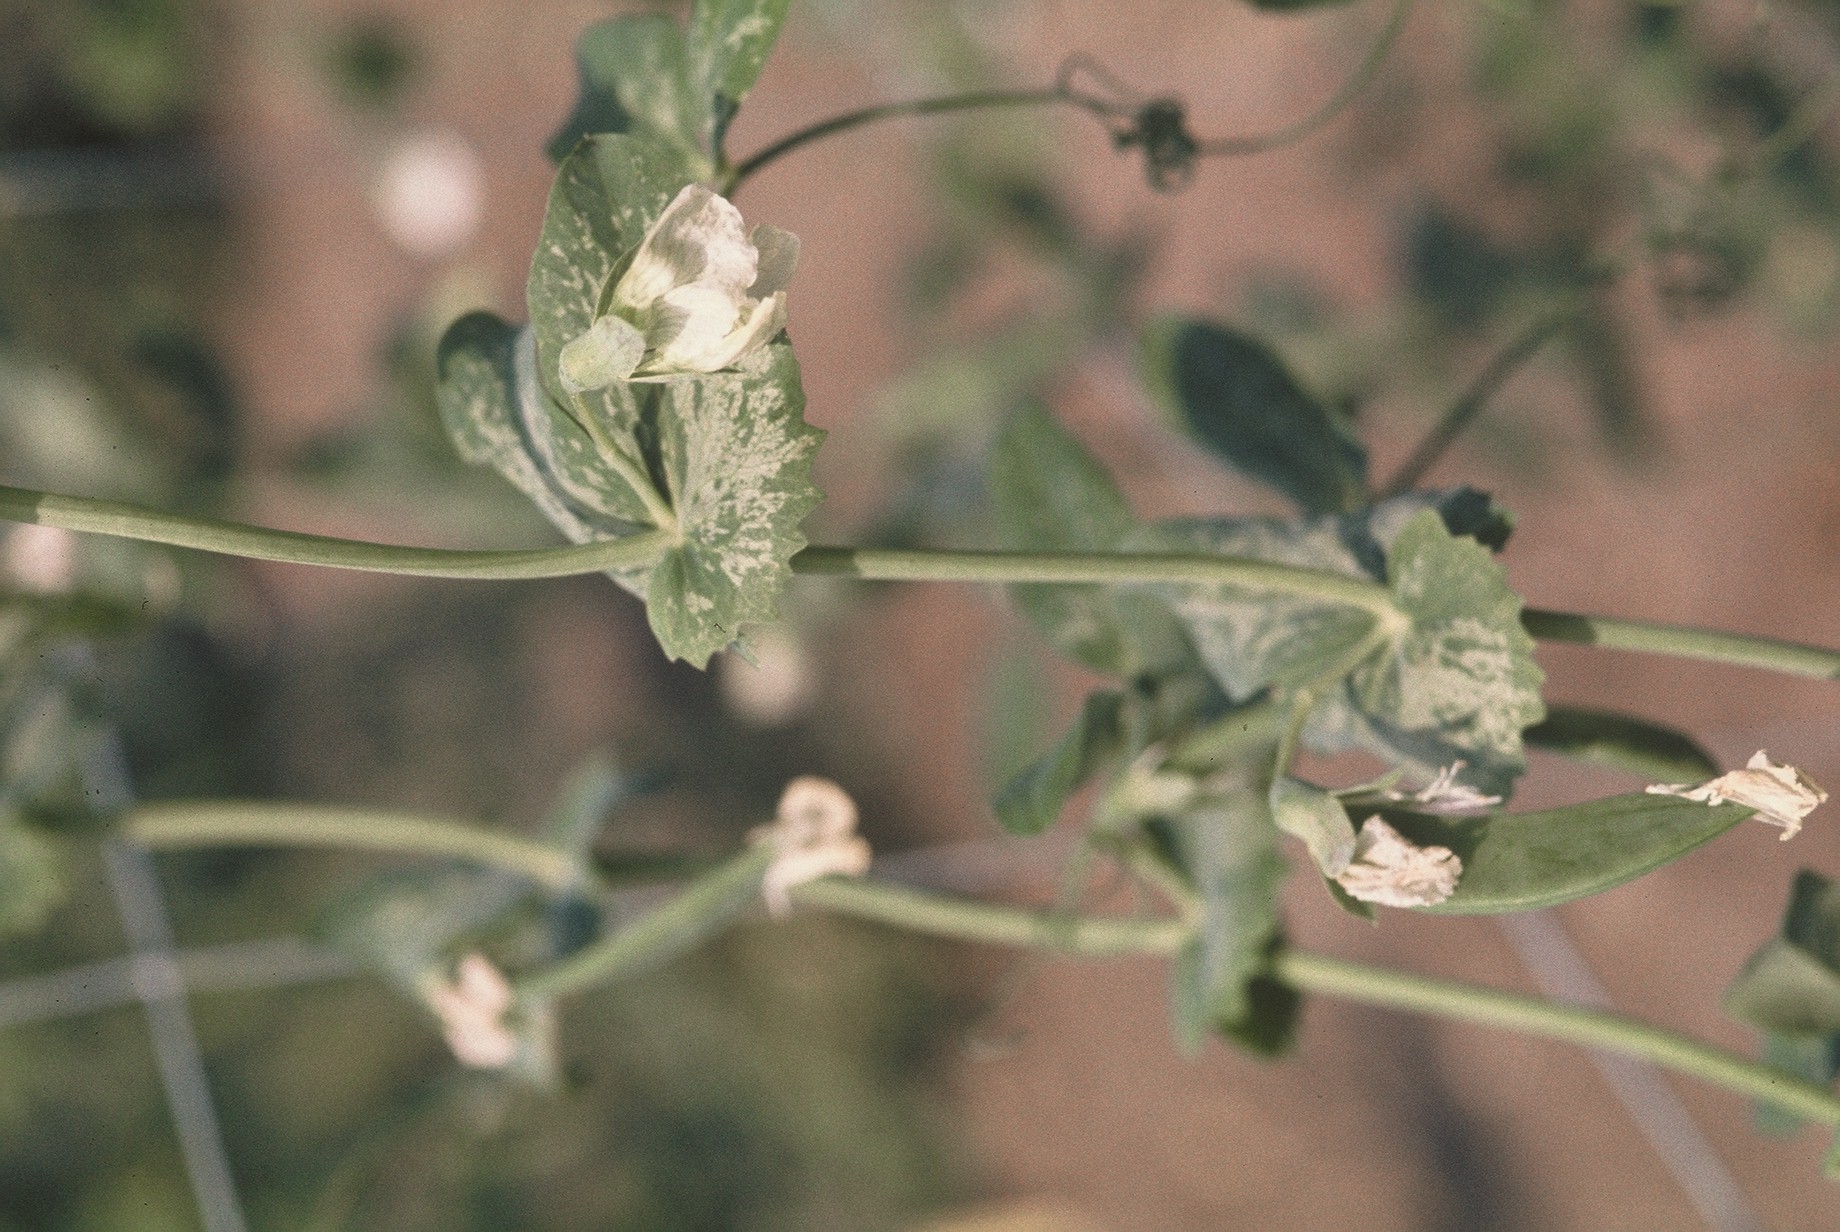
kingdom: Plantae
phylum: Tracheophyta
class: Magnoliopsida
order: Fabales
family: Fabaceae
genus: Lathyrus
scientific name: Lathyrus oleraceus
